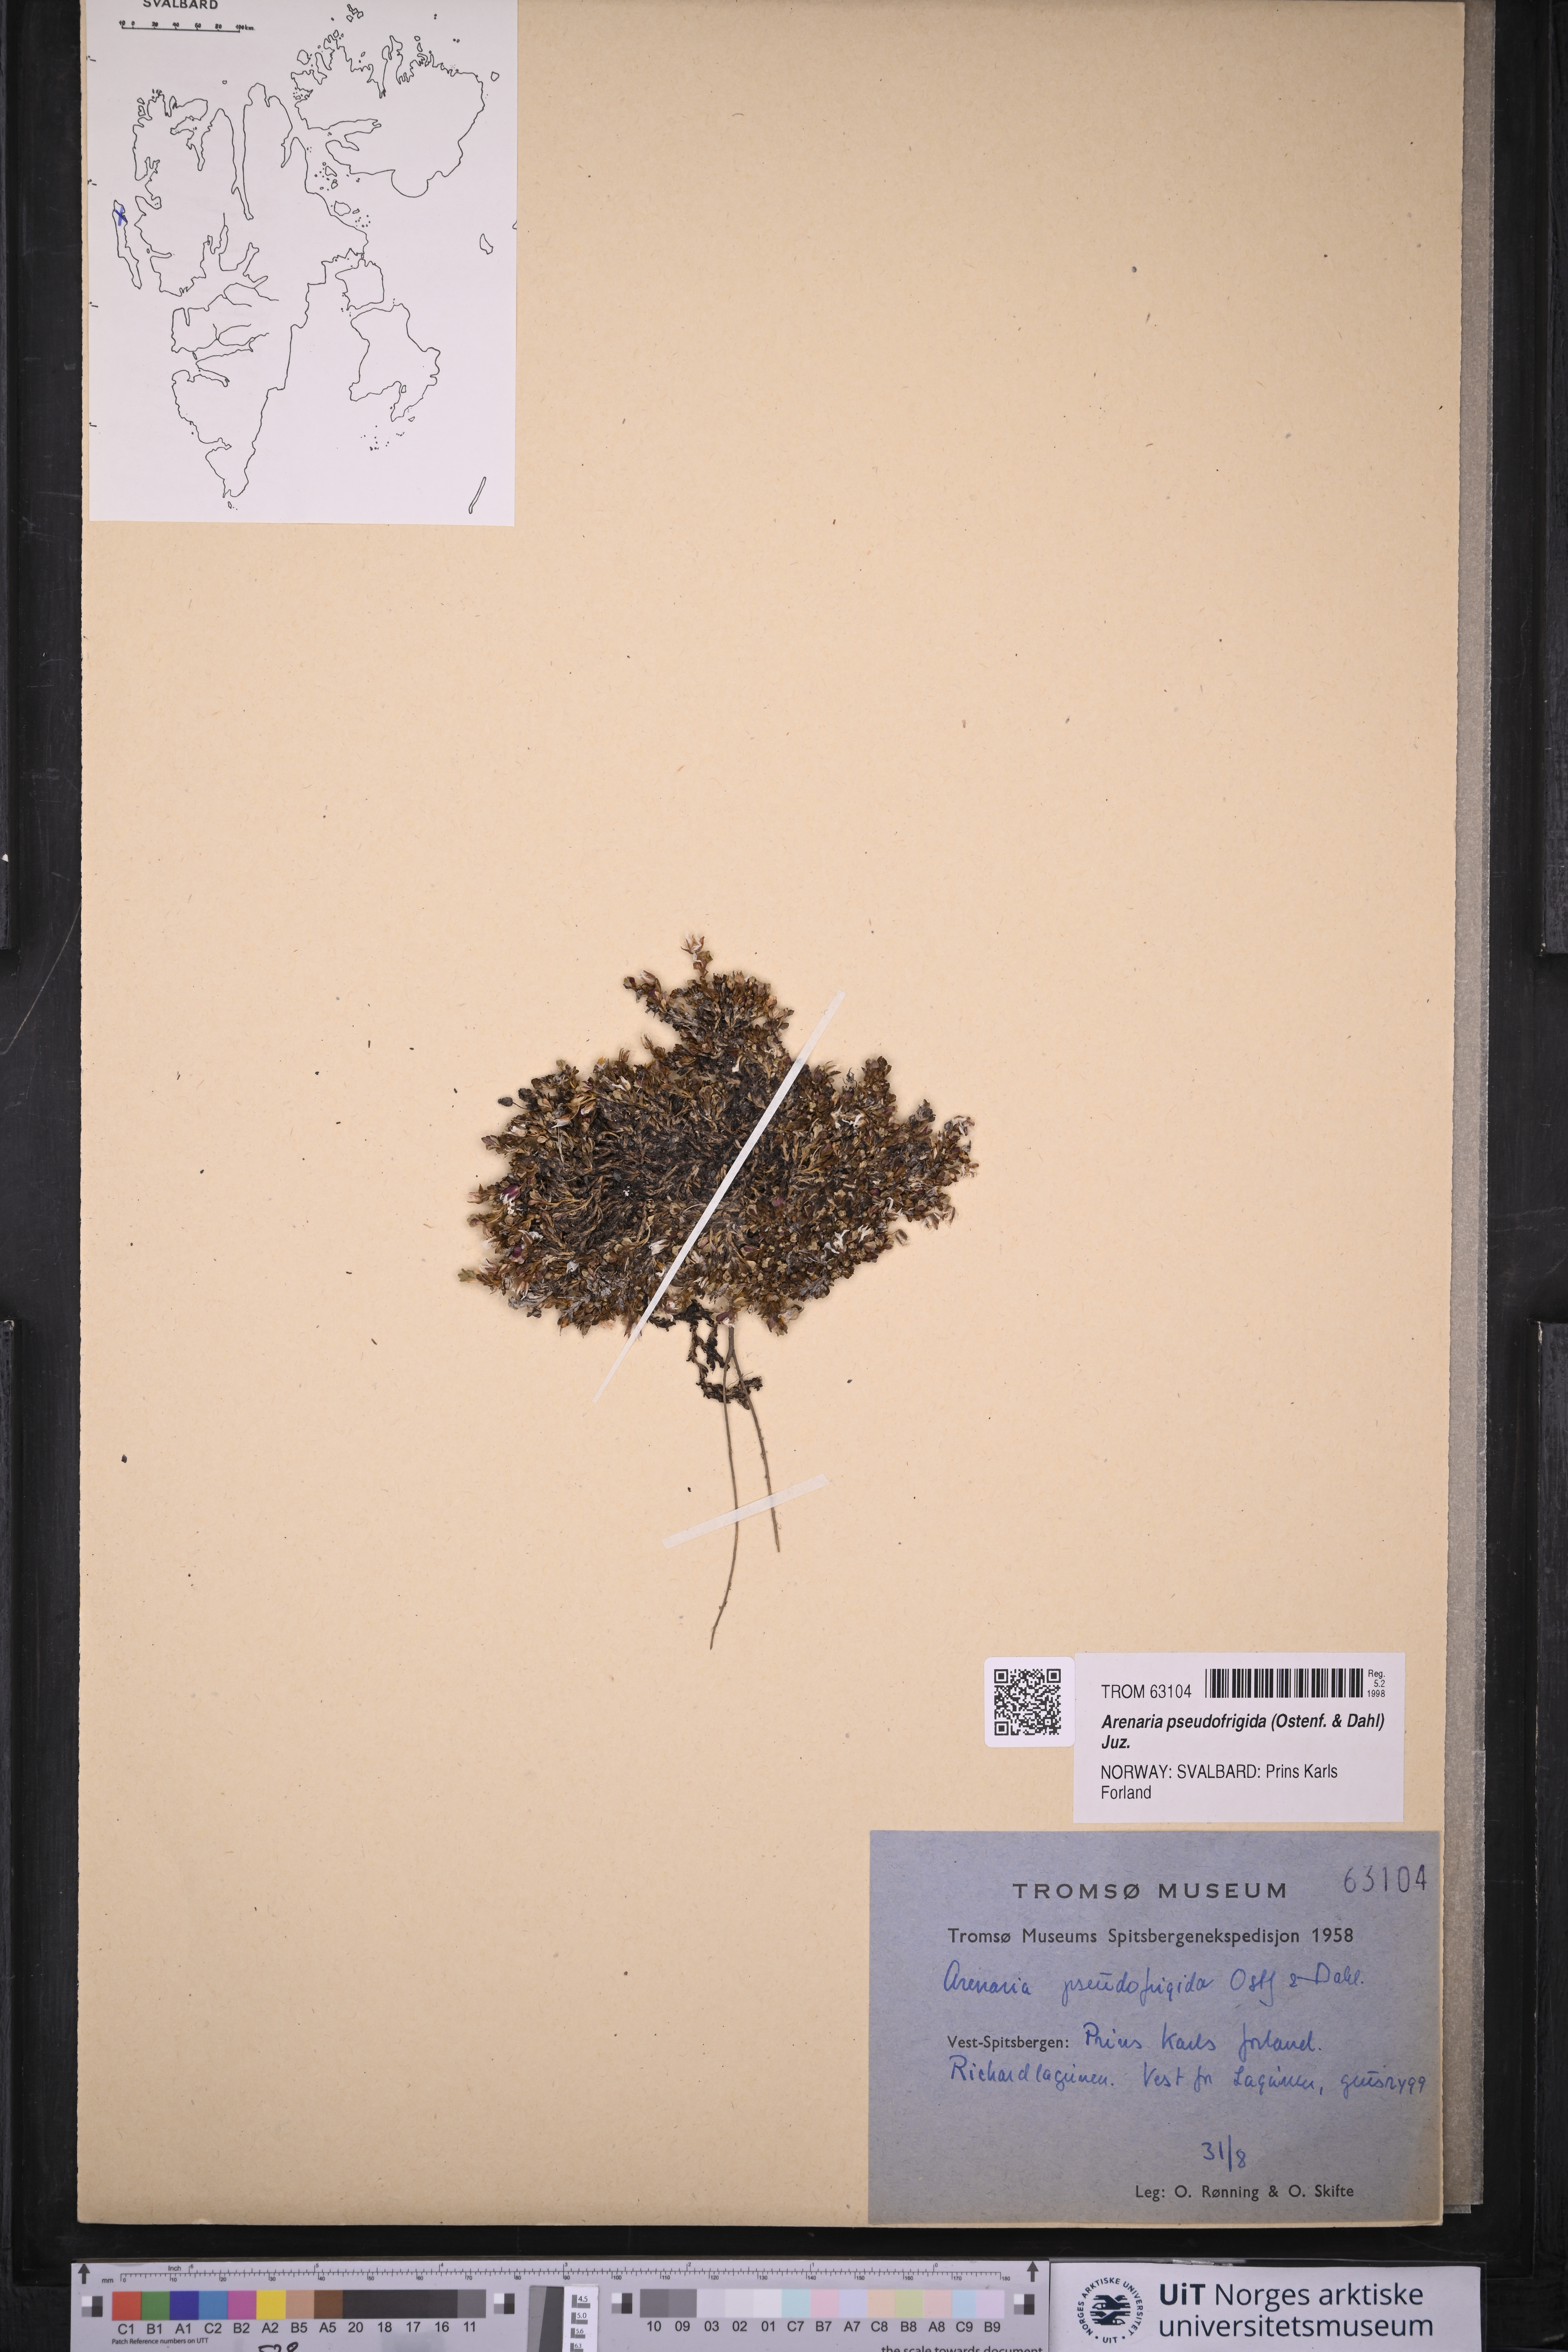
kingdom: Plantae
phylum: Tracheophyta
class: Magnoliopsida
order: Caryophyllales
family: Caryophyllaceae
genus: Arenaria
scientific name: Arenaria pseudofrigida
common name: Tundra sandwort
